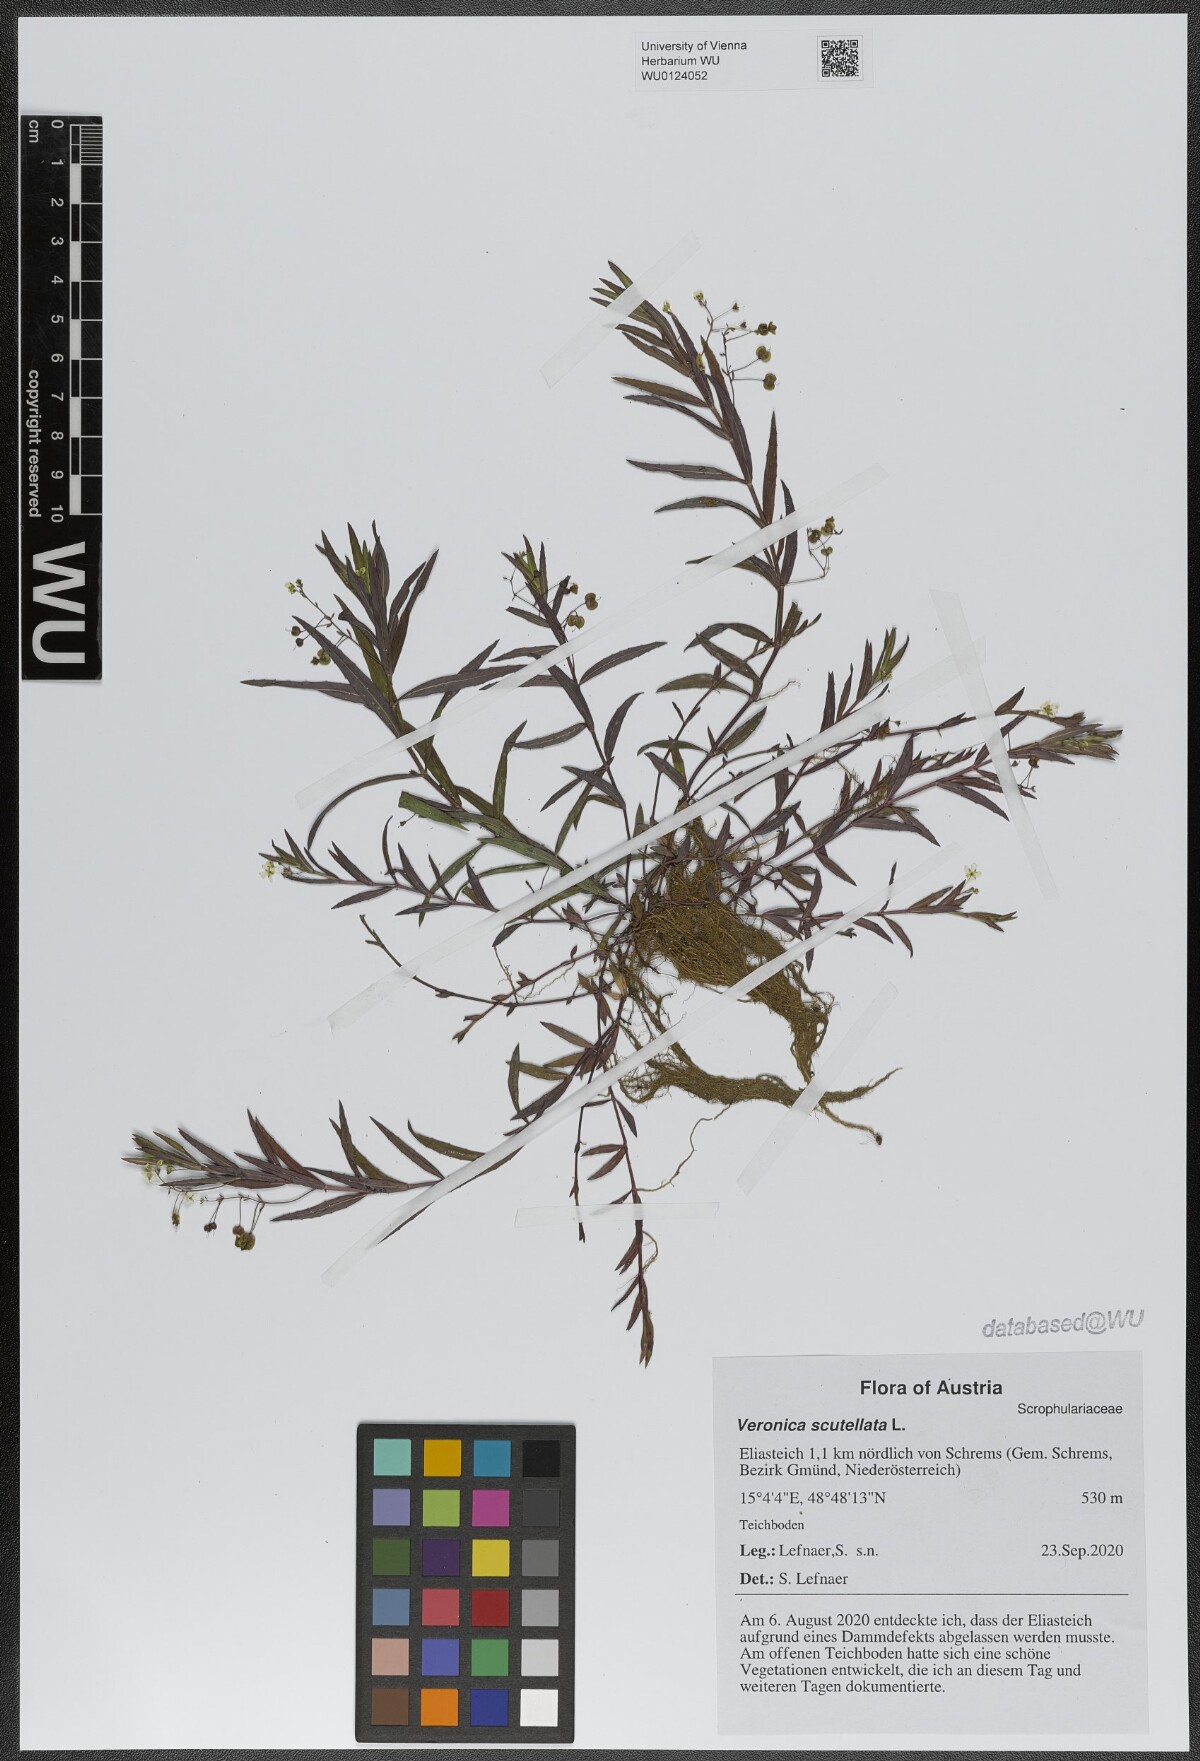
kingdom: Plantae
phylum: Tracheophyta
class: Magnoliopsida
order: Lamiales
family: Plantaginaceae
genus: Veronica
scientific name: Veronica scutellata
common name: Marsh speedwell
